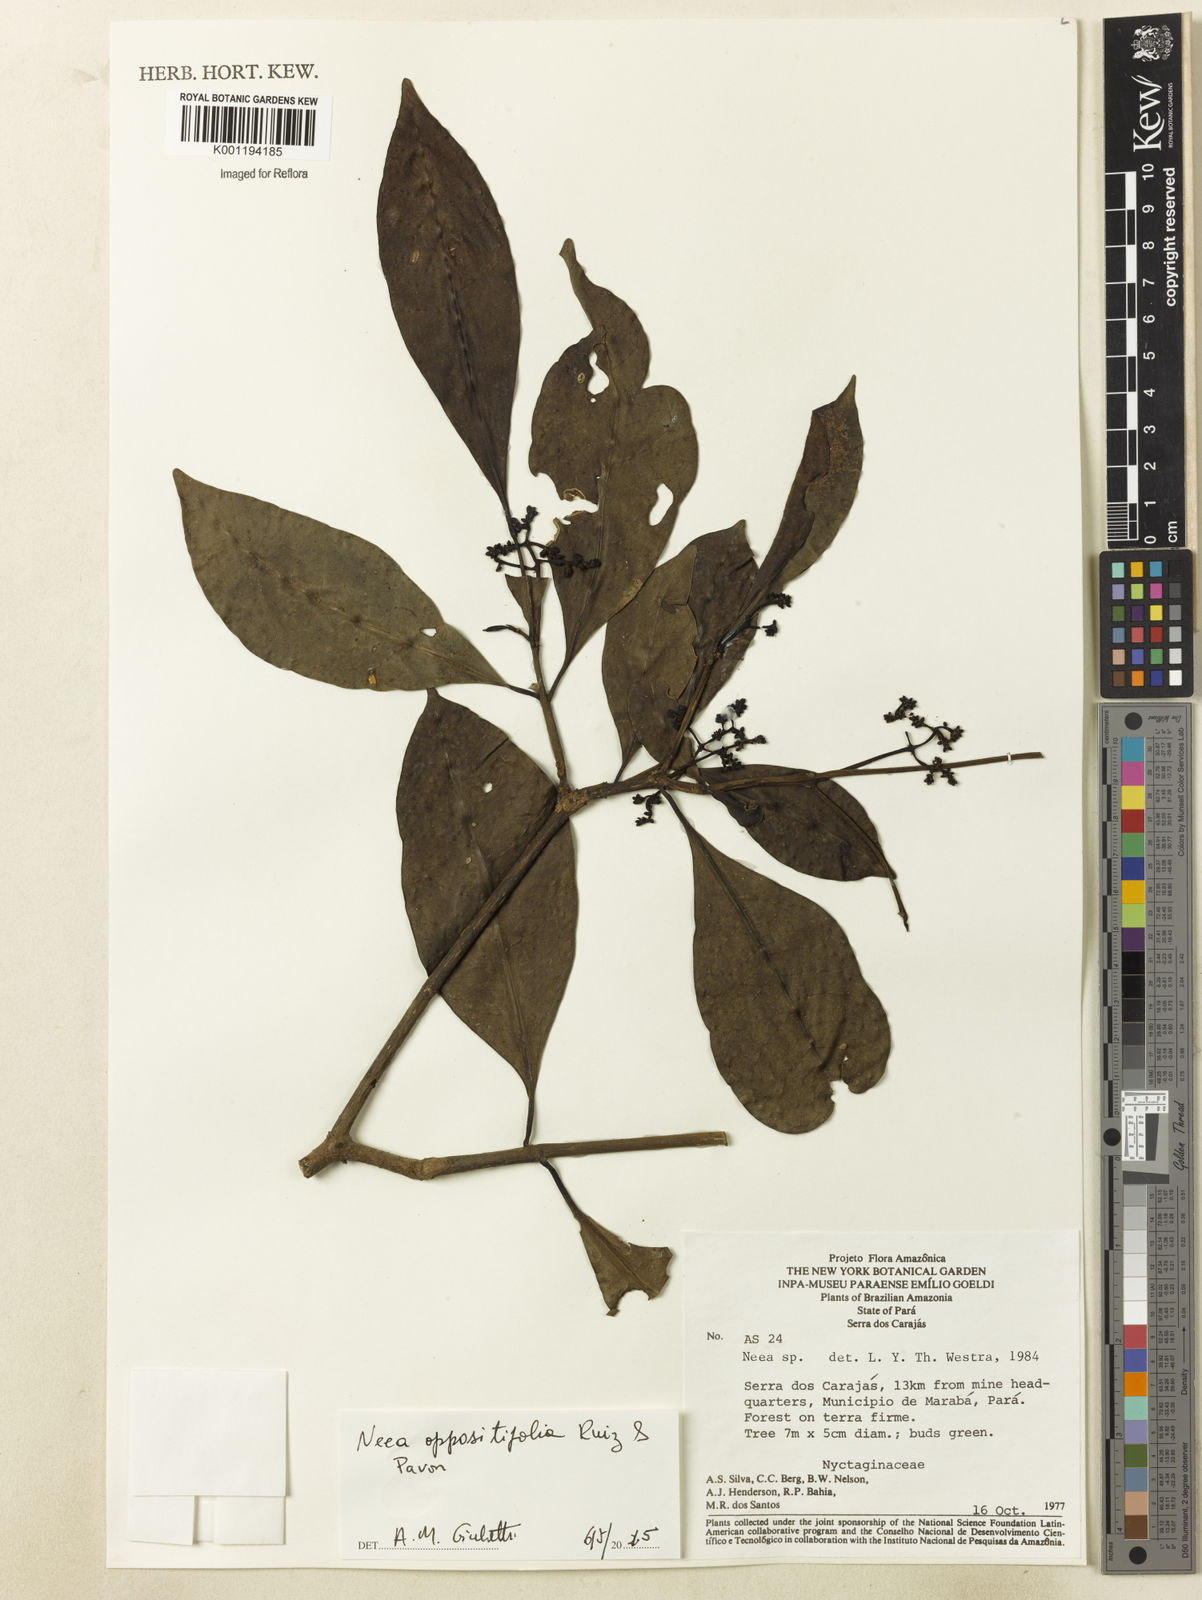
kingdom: Plantae
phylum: Tracheophyta
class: Magnoliopsida
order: Caryophyllales
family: Nyctaginaceae
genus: Neea
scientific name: Neea oppositifolia
